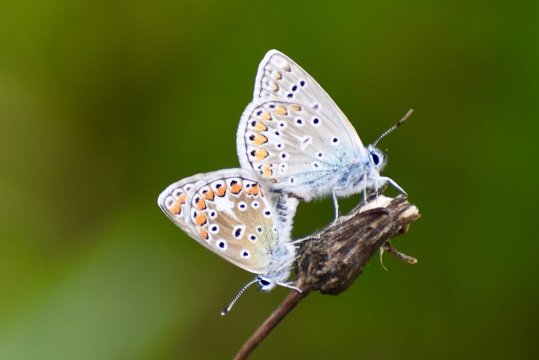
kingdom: Animalia
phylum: Arthropoda
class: Insecta
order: Lepidoptera
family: Lycaenidae
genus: Polyommatus
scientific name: Polyommatus icarus
